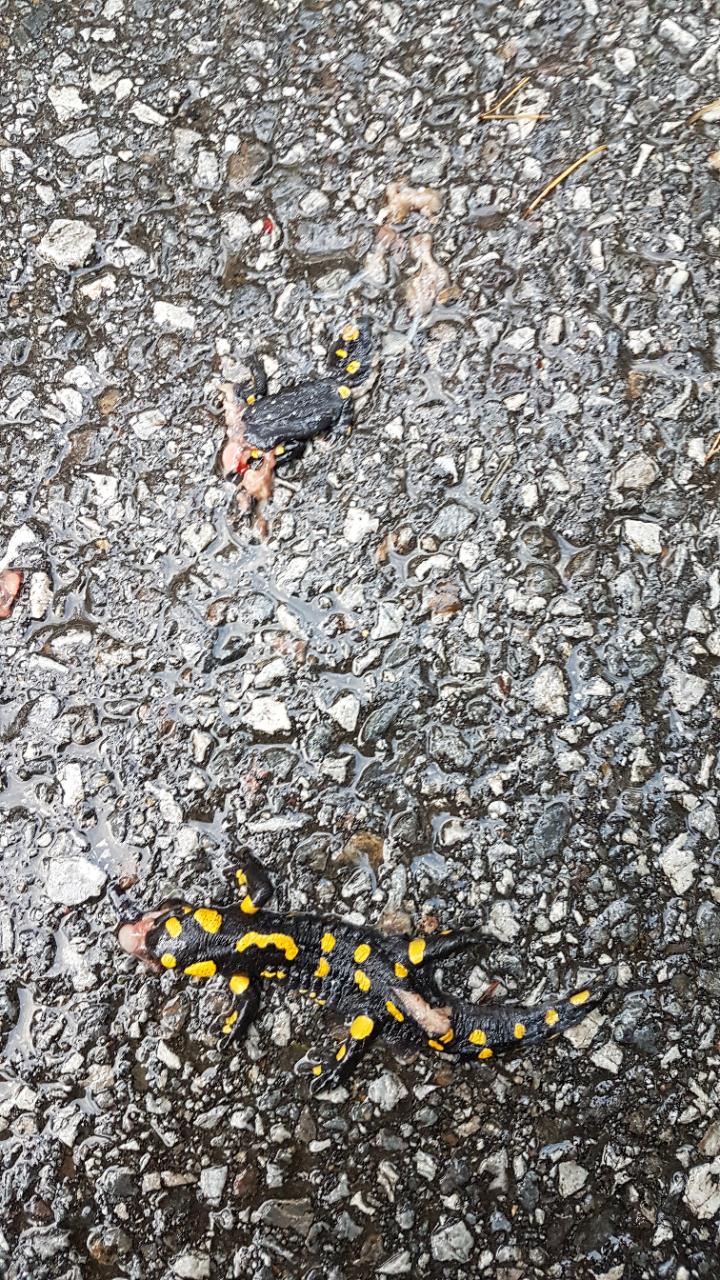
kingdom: Animalia
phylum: Chordata
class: Amphibia
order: Caudata
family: Salamandridae
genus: Salamandra
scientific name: Salamandra salamandra
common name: Fire salamander
